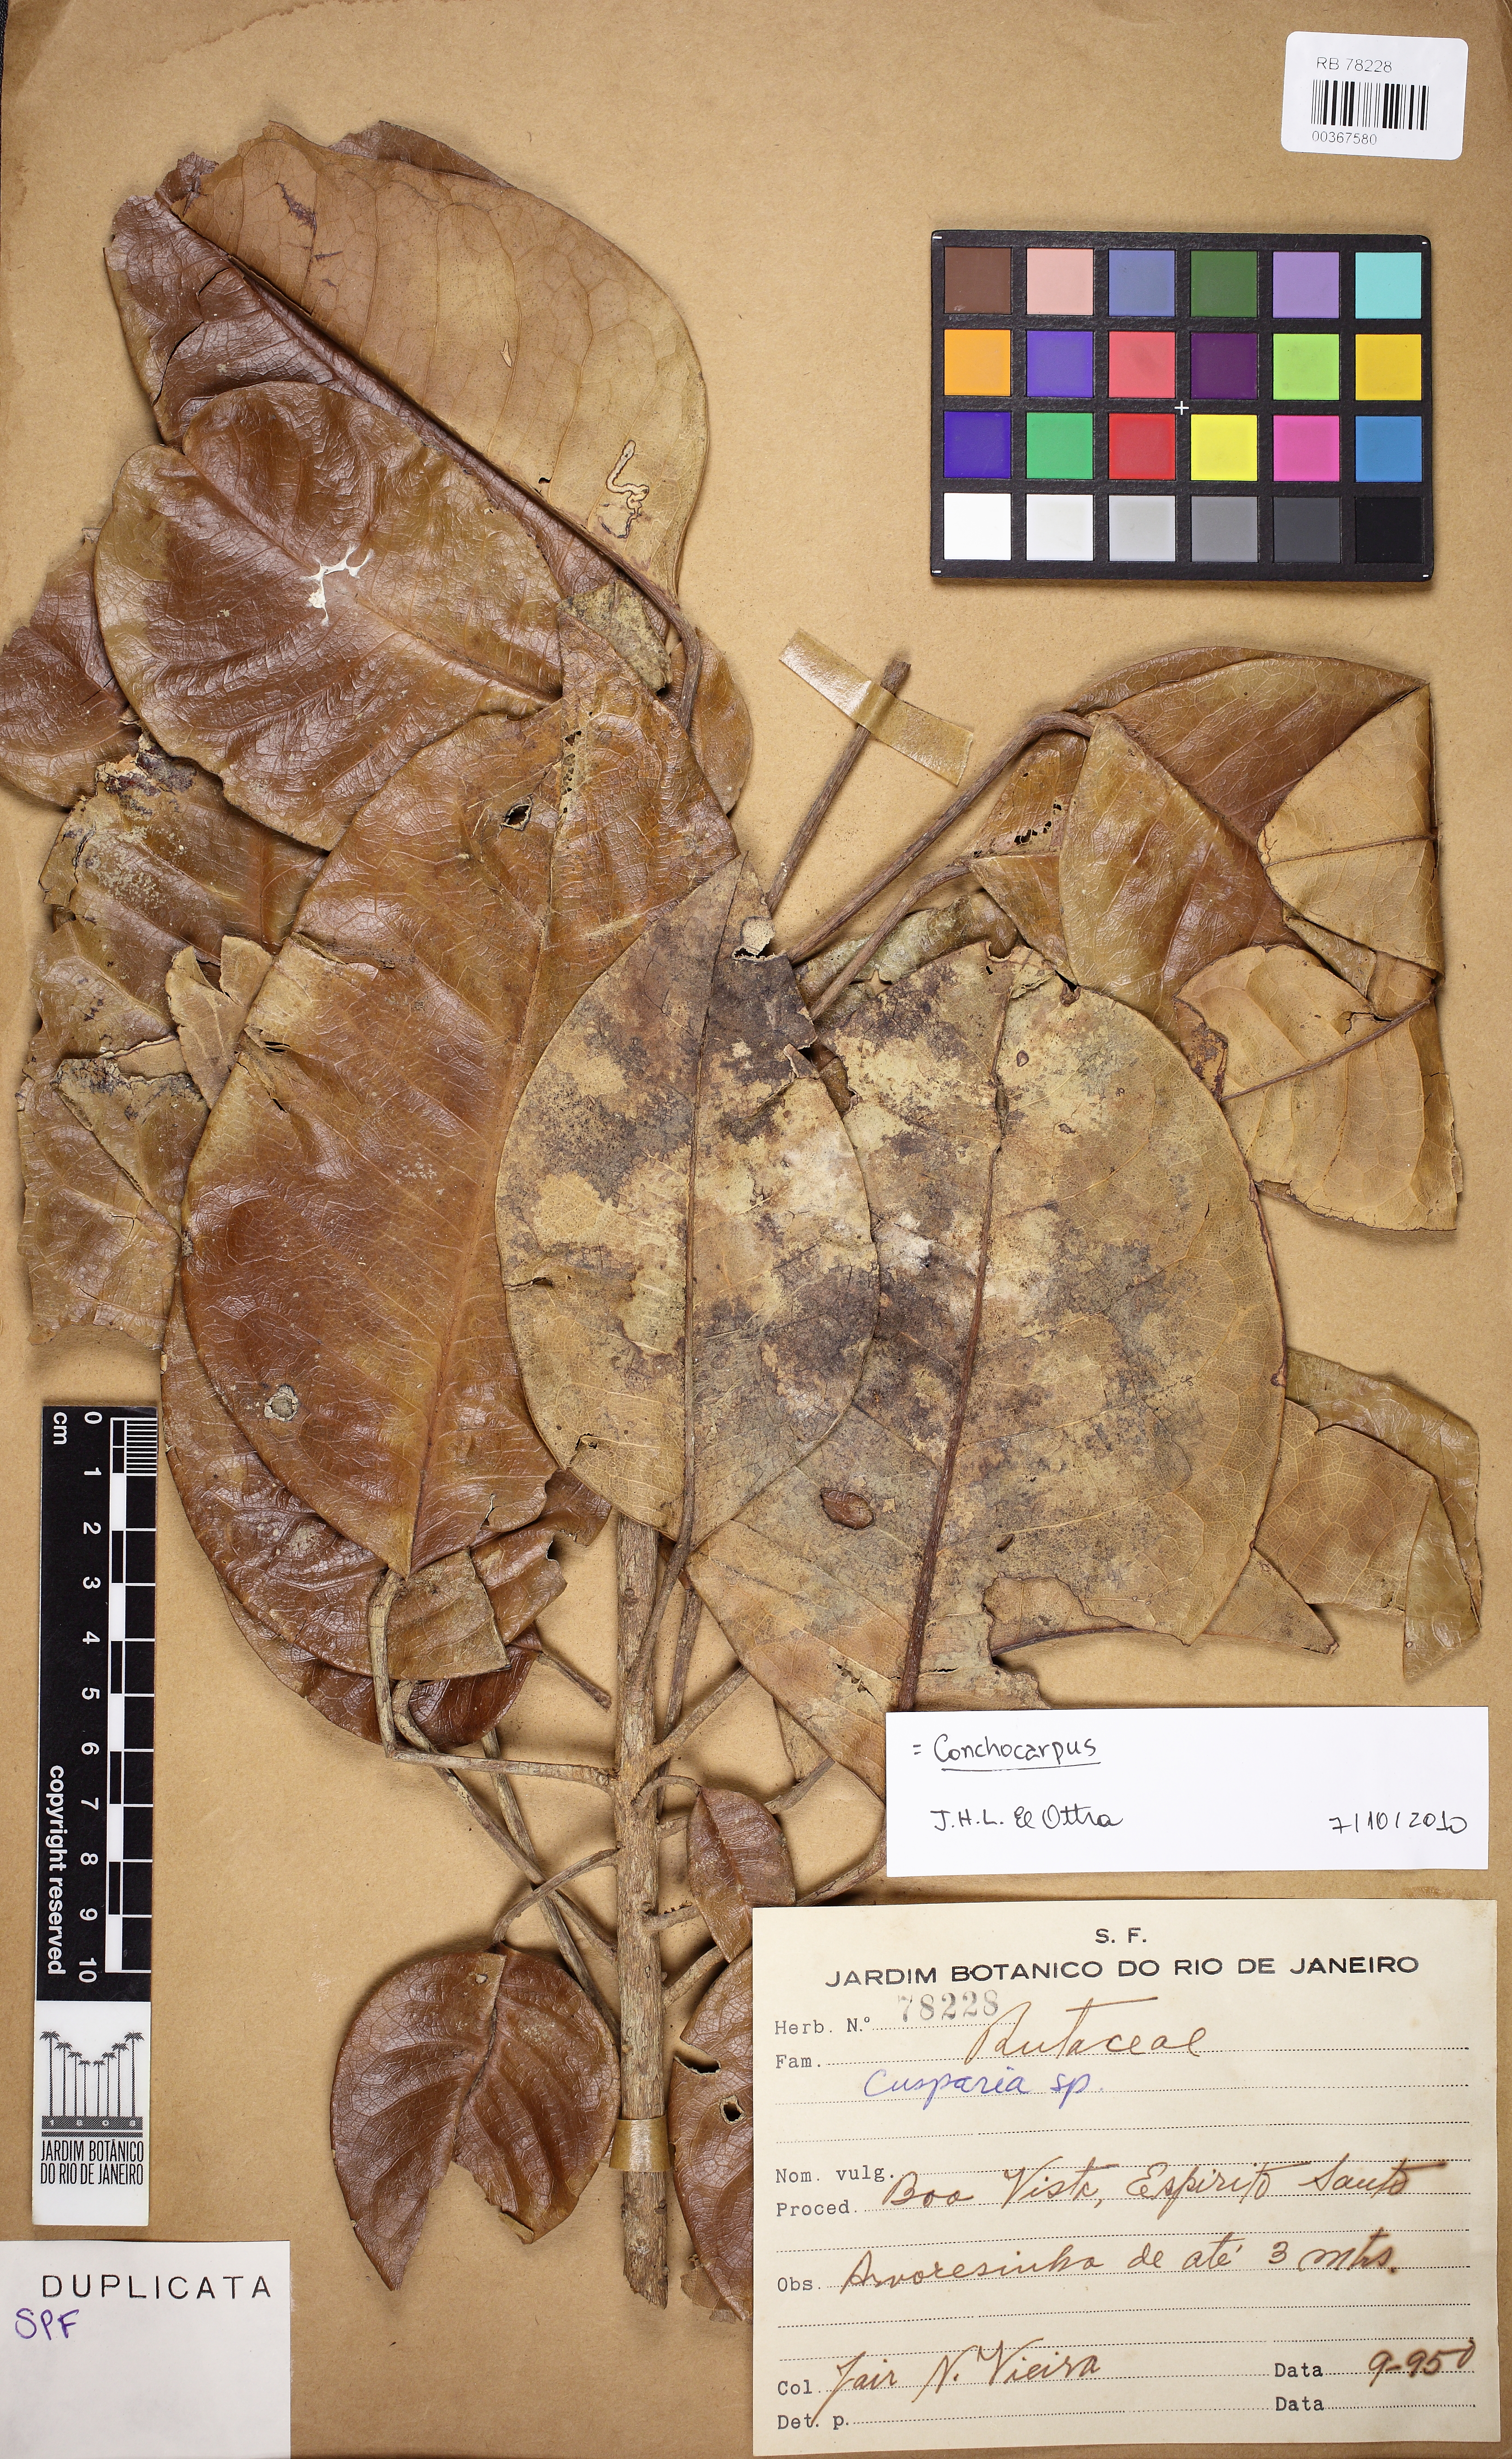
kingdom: Plantae
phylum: Tracheophyta
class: Magnoliopsida
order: Sapindales
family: Rutaceae
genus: Conchocarpus
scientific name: Conchocarpus
